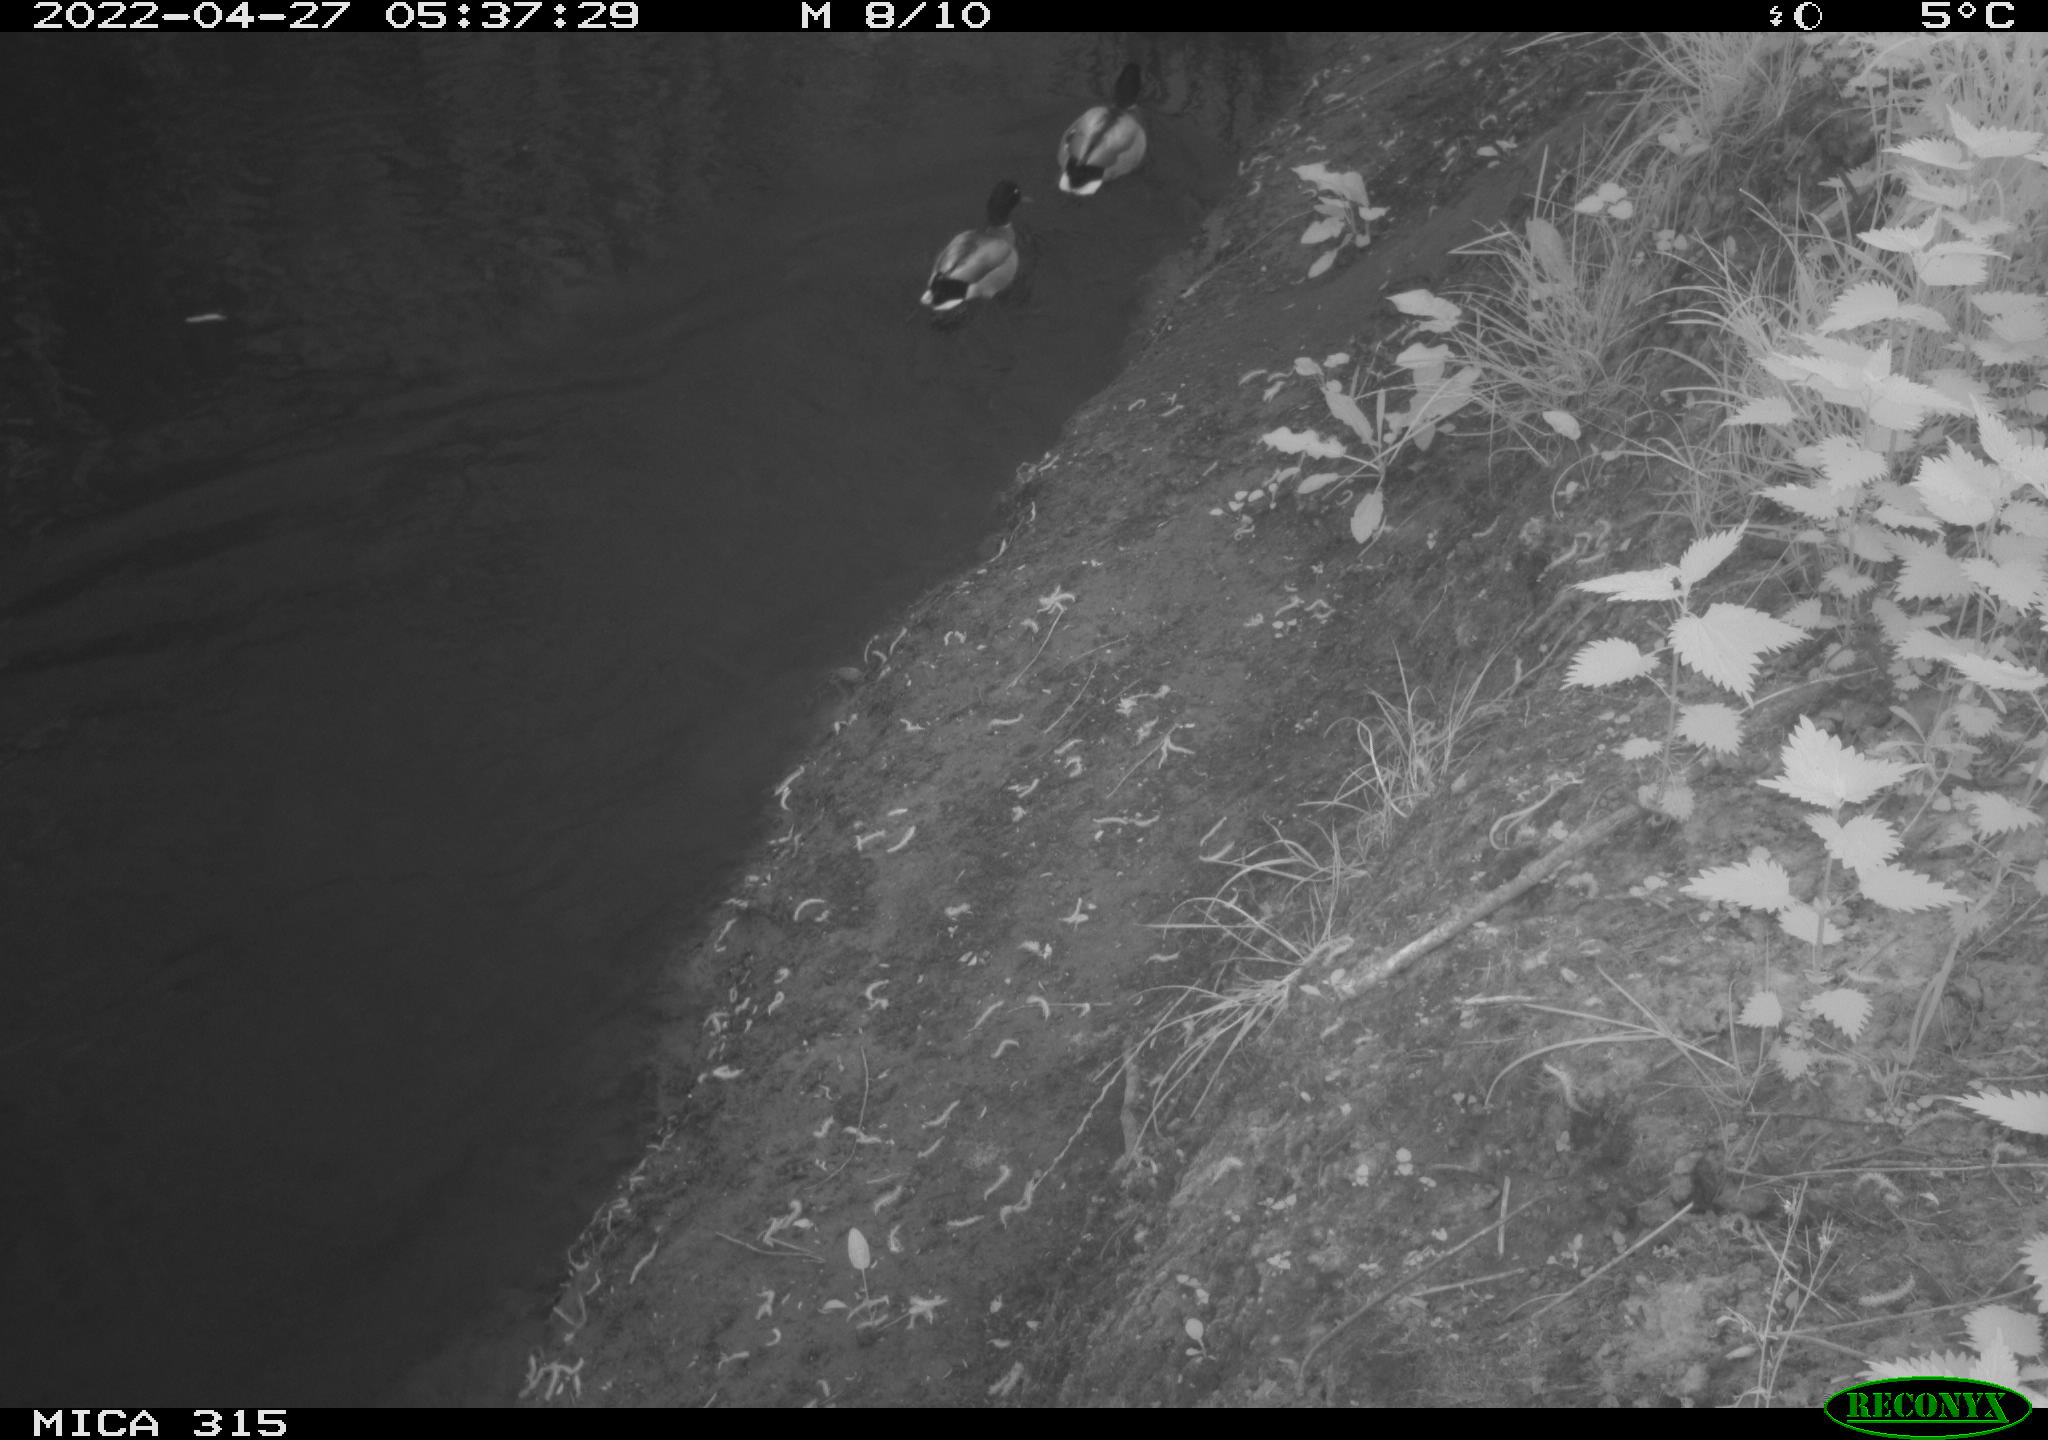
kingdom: Animalia
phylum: Chordata
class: Aves
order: Anseriformes
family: Anatidae
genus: Anas
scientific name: Anas platyrhynchos
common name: Mallard
